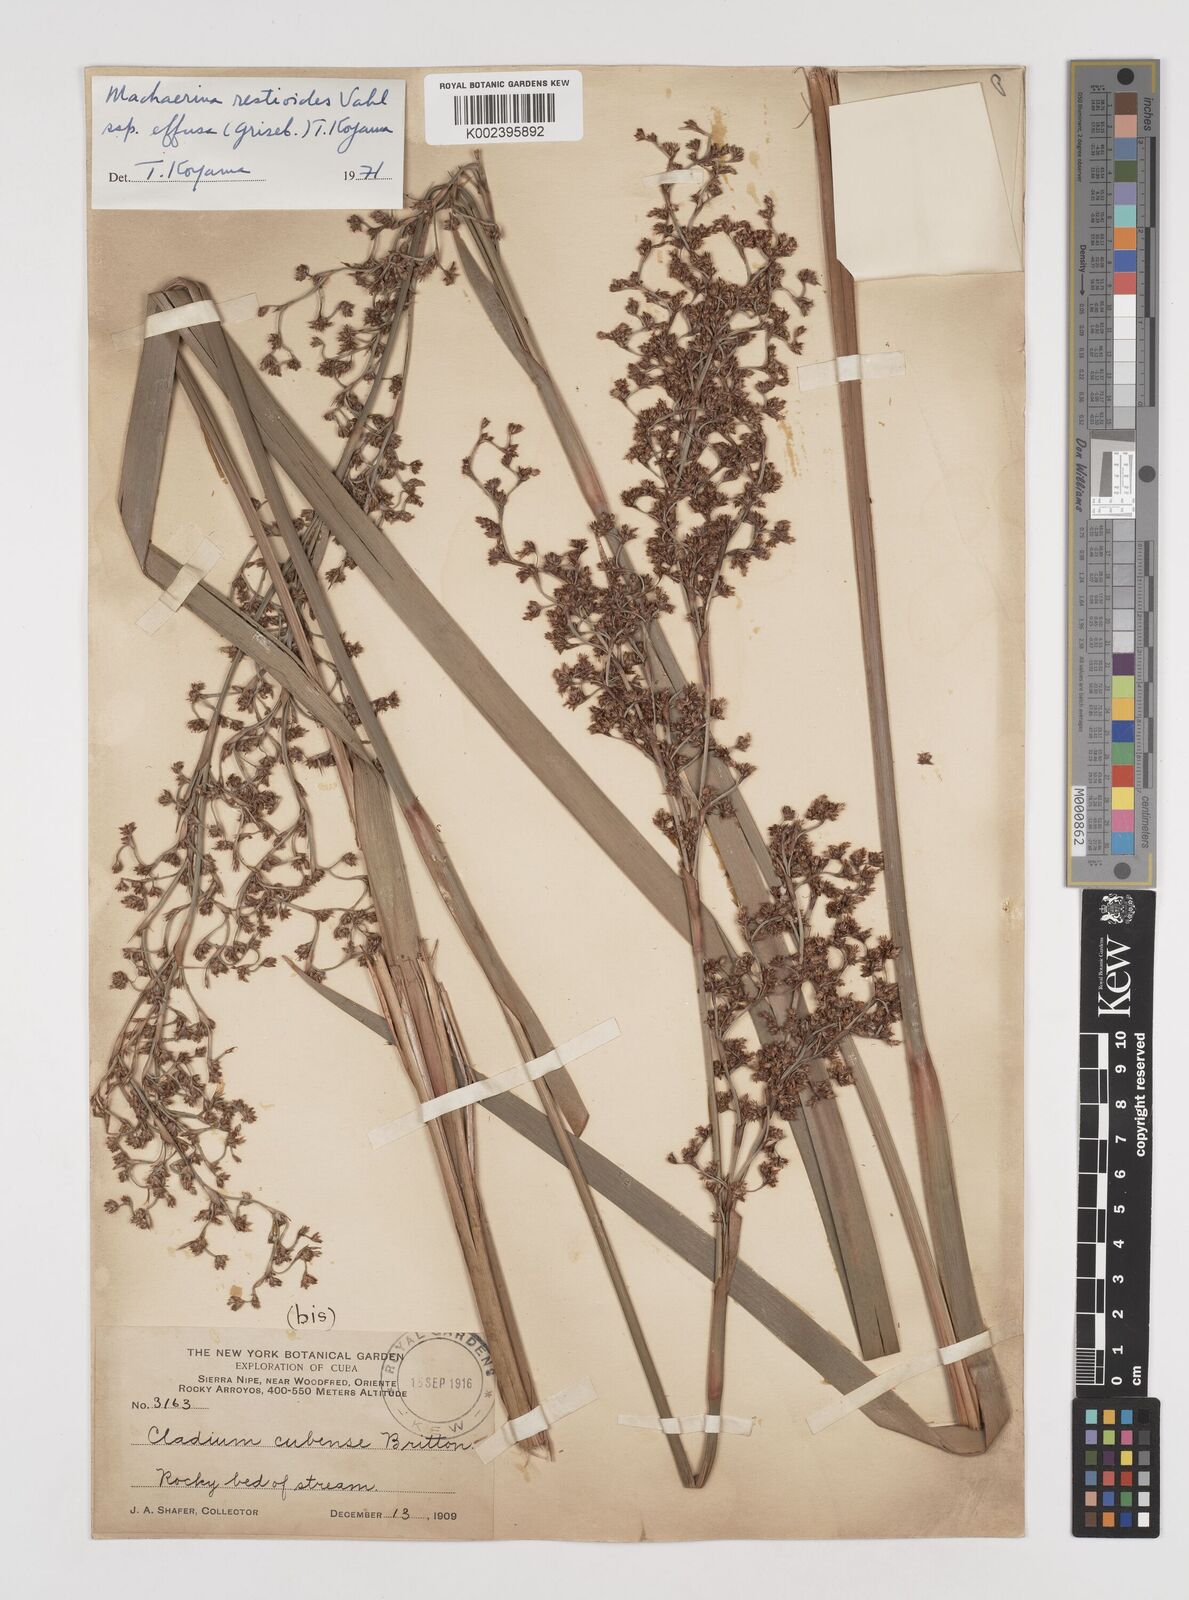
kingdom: Plantae
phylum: Tracheophyta
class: Liliopsida
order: Poales
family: Cyperaceae
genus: Machaerina
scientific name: Machaerina cubensis
